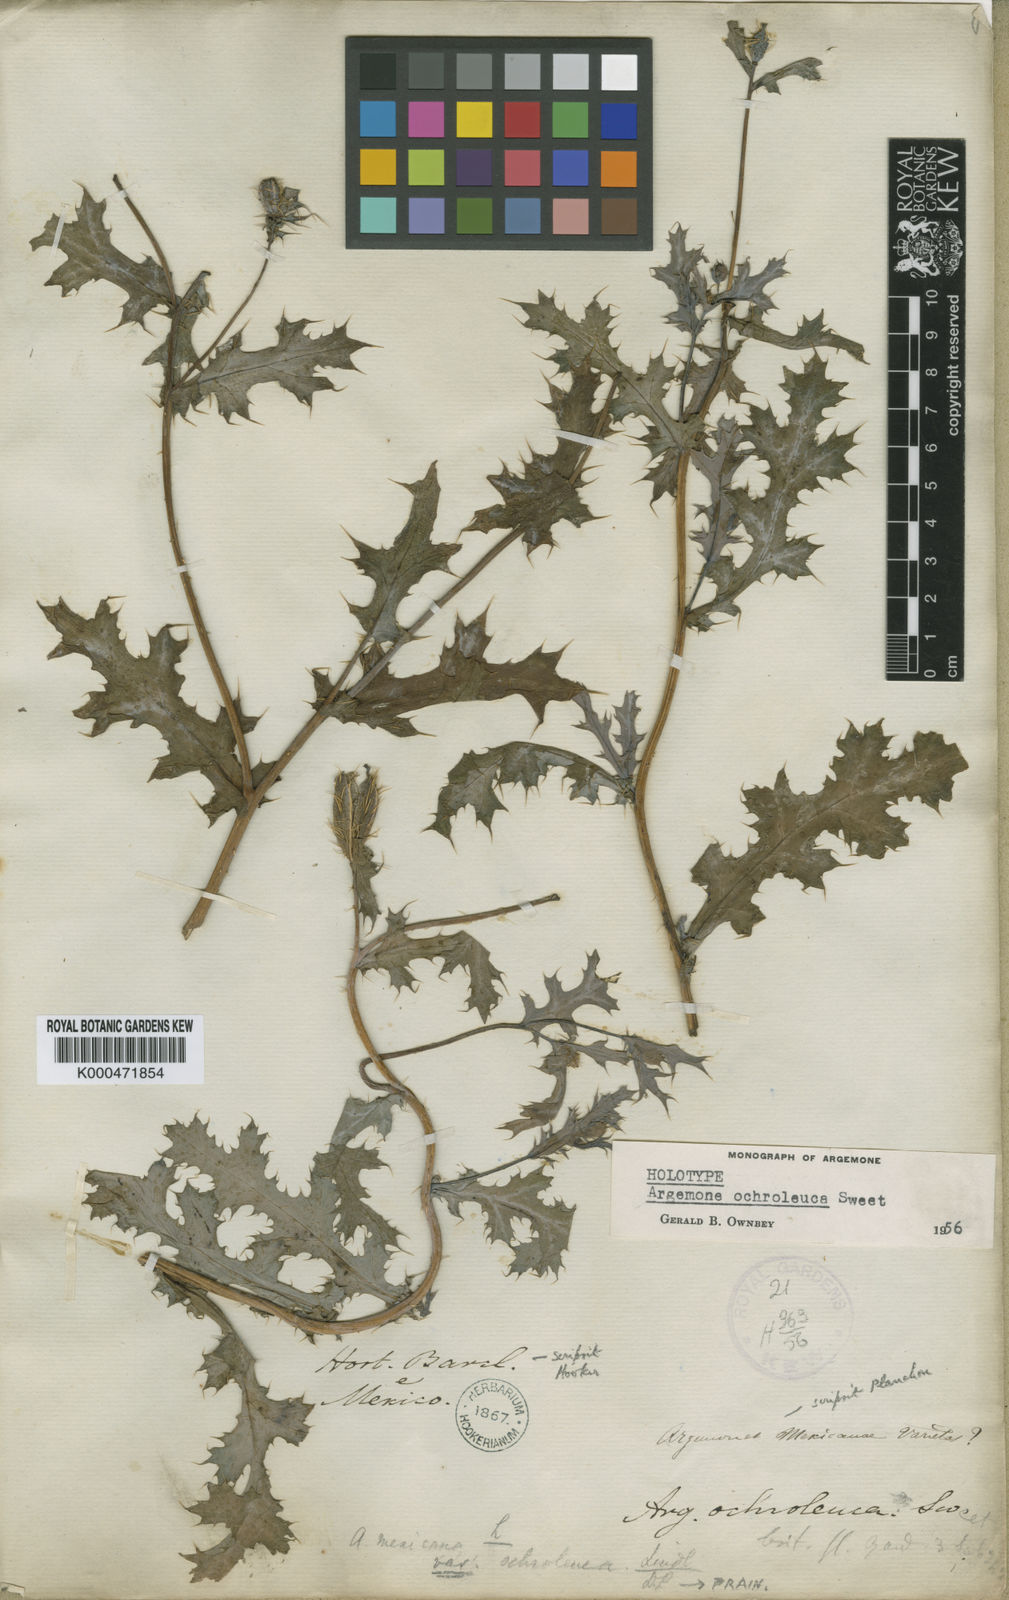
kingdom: Plantae
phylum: Tracheophyta
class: Magnoliopsida
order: Ranunculales
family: Papaveraceae
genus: Argemone
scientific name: Argemone ochroleuca
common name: White-flower mexican-poppy
